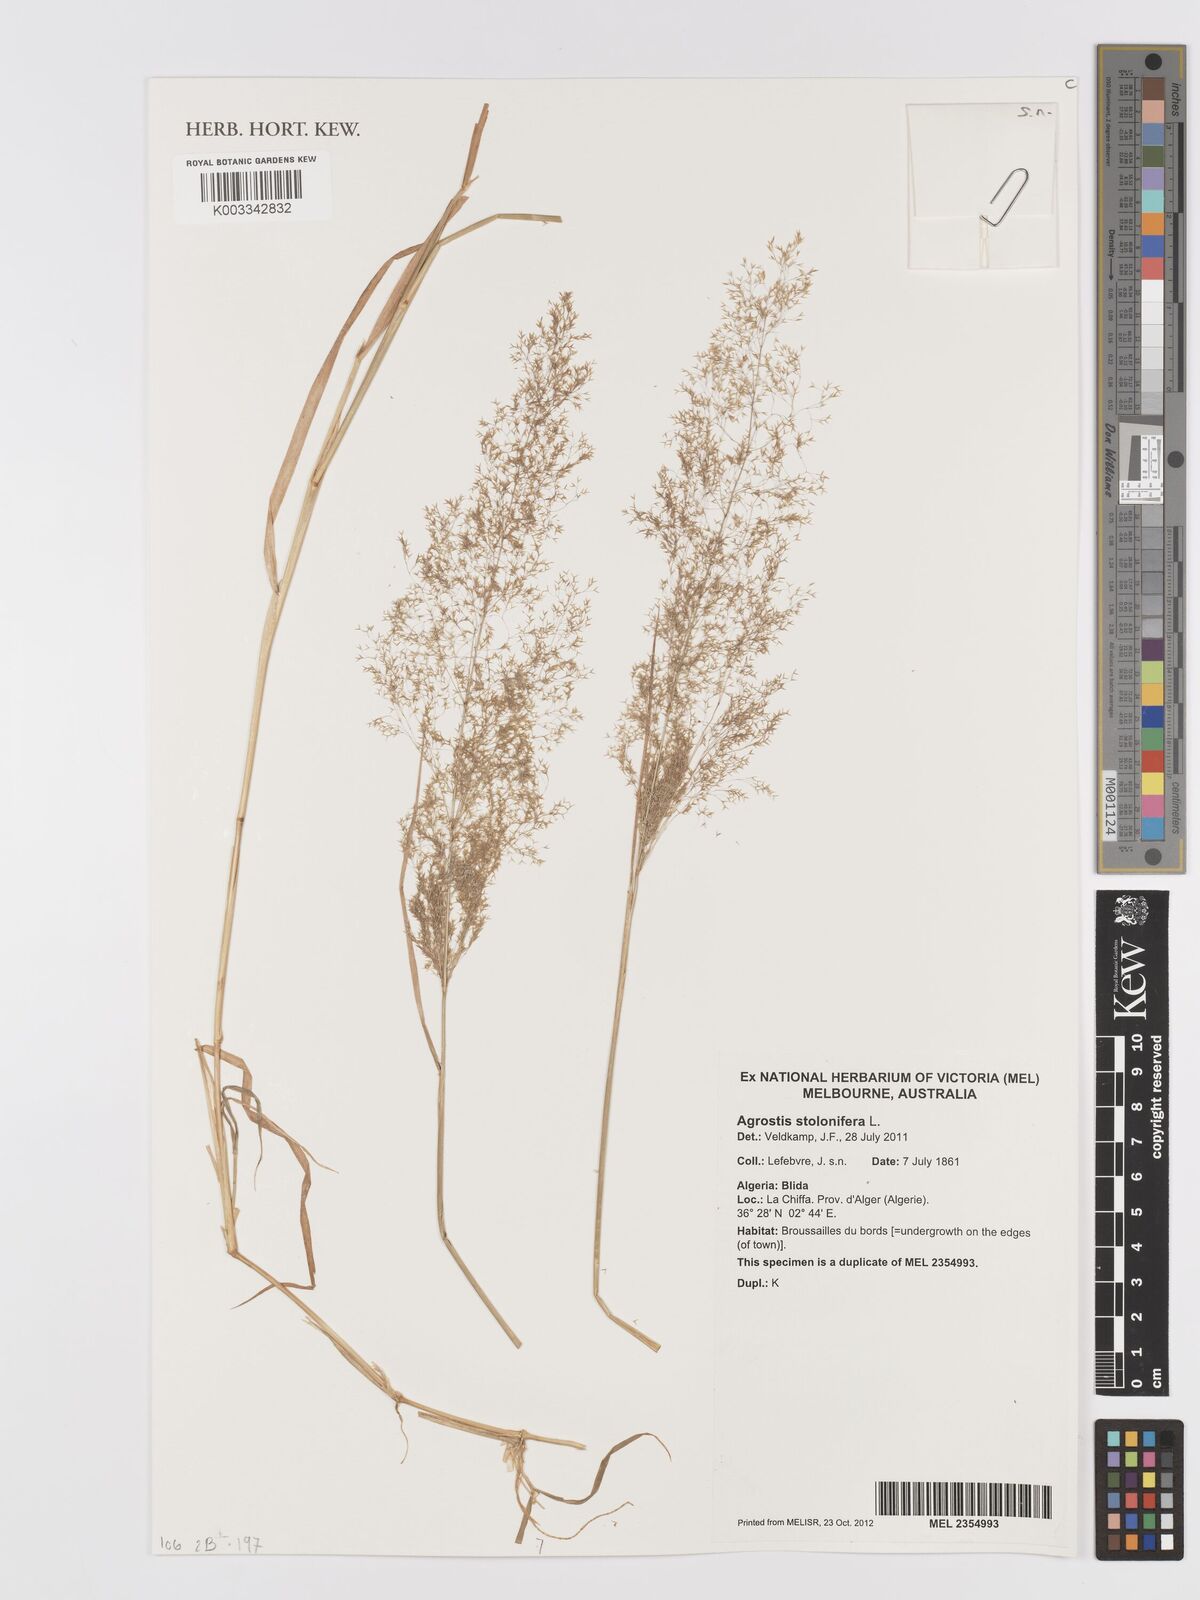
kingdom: Plantae
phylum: Tracheophyta
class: Liliopsida
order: Poales
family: Poaceae
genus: Agrostis
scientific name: Agrostis stolonifera
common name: Creeping bentgrass
